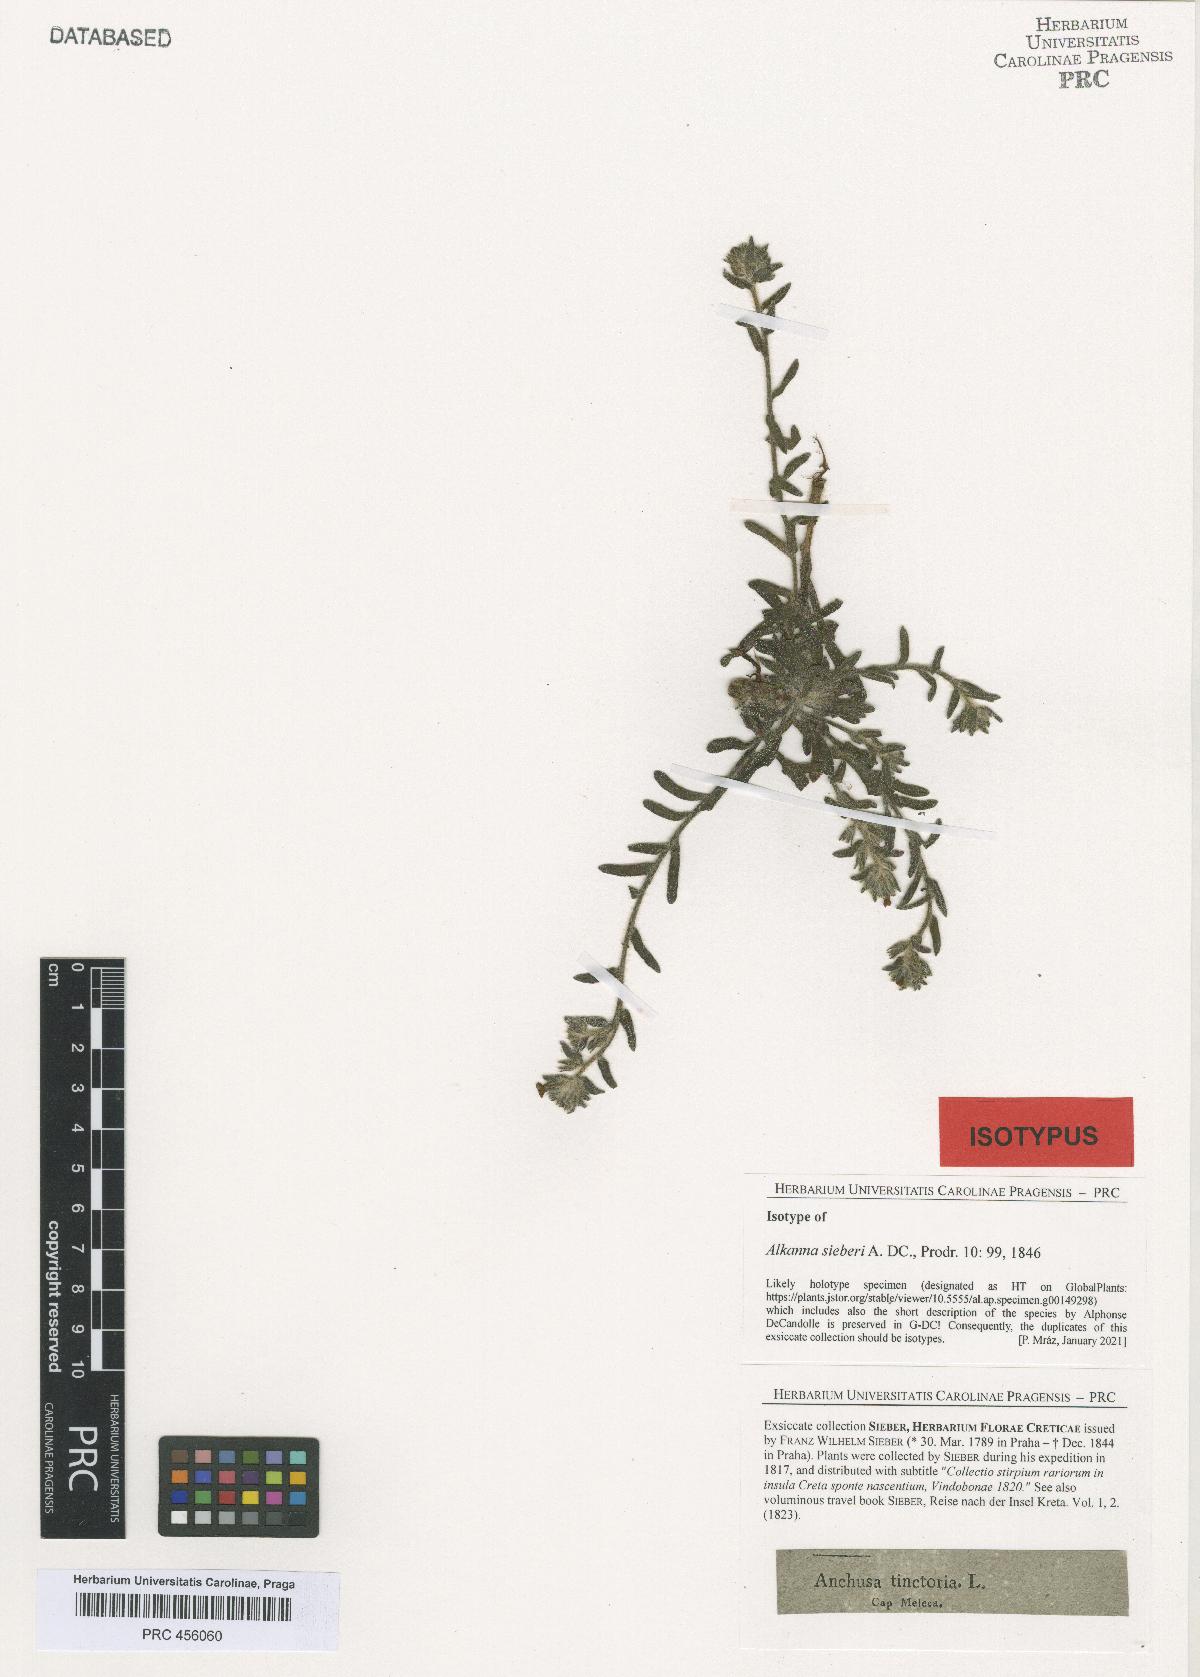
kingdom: Plantae
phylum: Tracheophyta
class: Magnoliopsida
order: Boraginales
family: Boraginaceae
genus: Alkanna
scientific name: Alkanna sieberi
